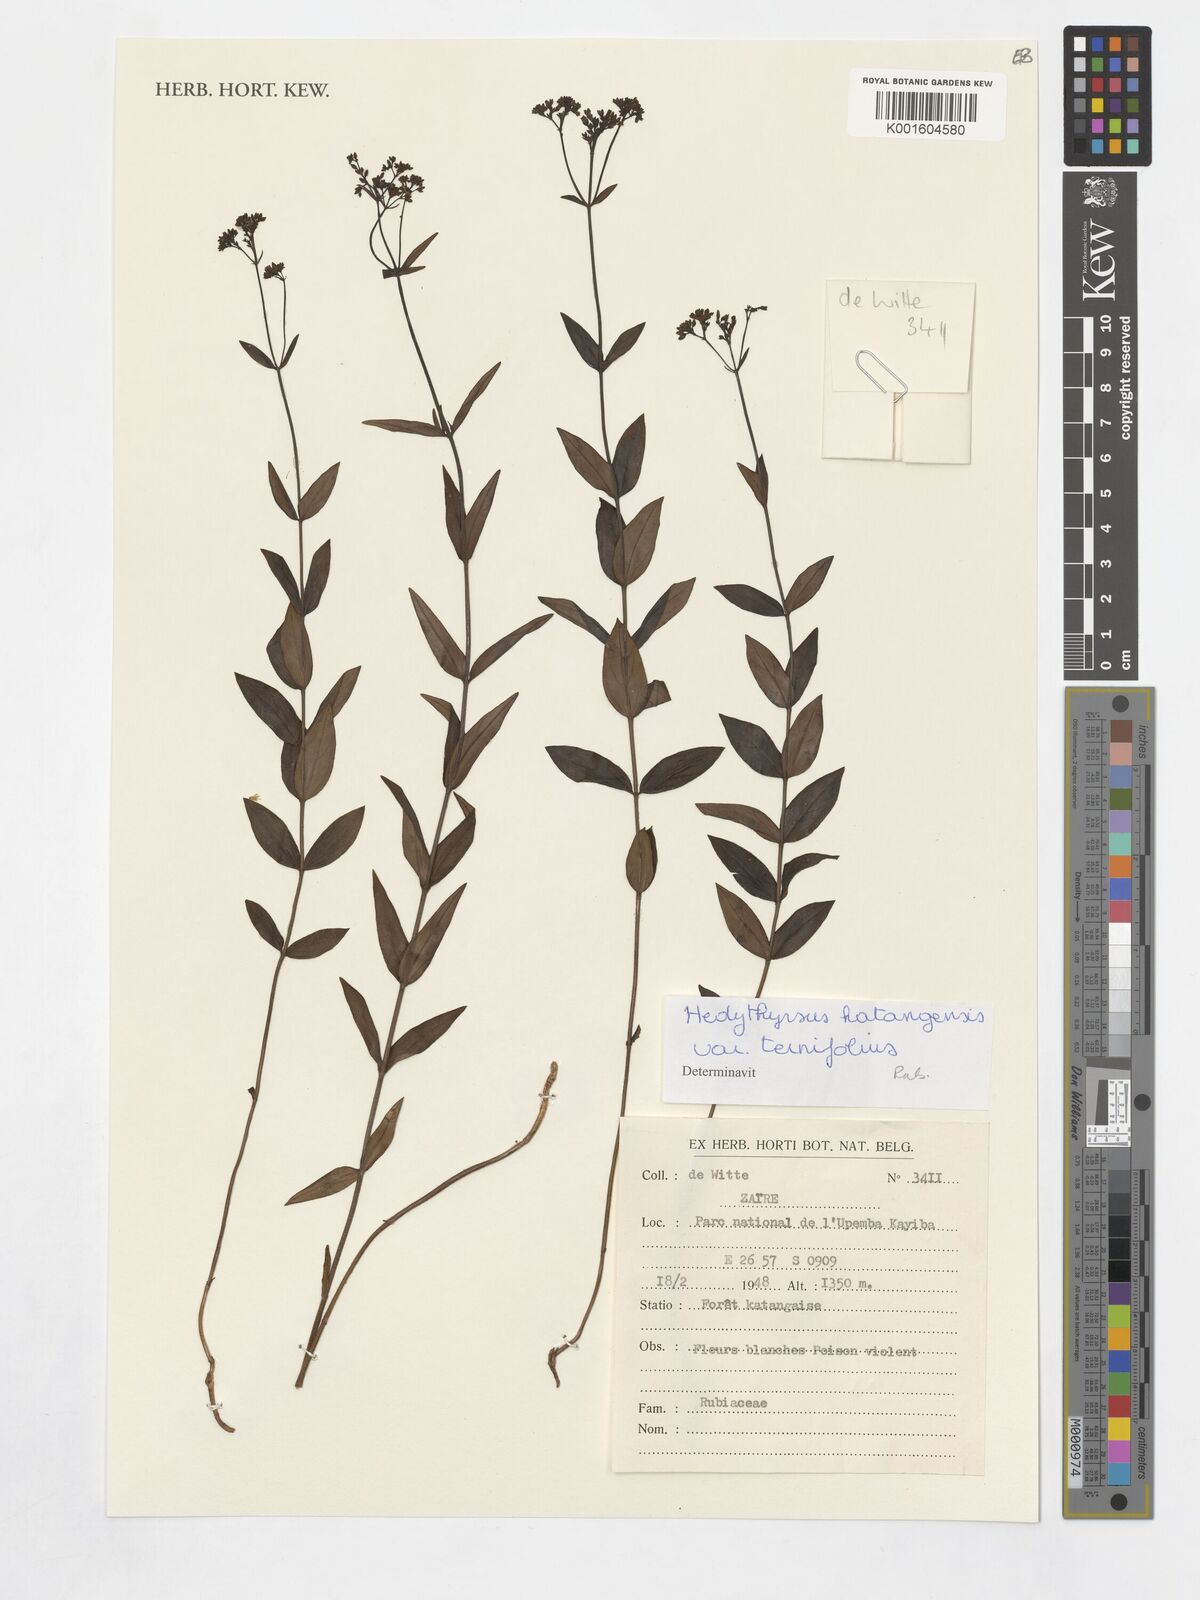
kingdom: Plantae
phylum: Tracheophyta
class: Magnoliopsida
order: Gentianales
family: Rubiaceae
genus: Hedythyrsus
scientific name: Hedythyrsus katangensis
